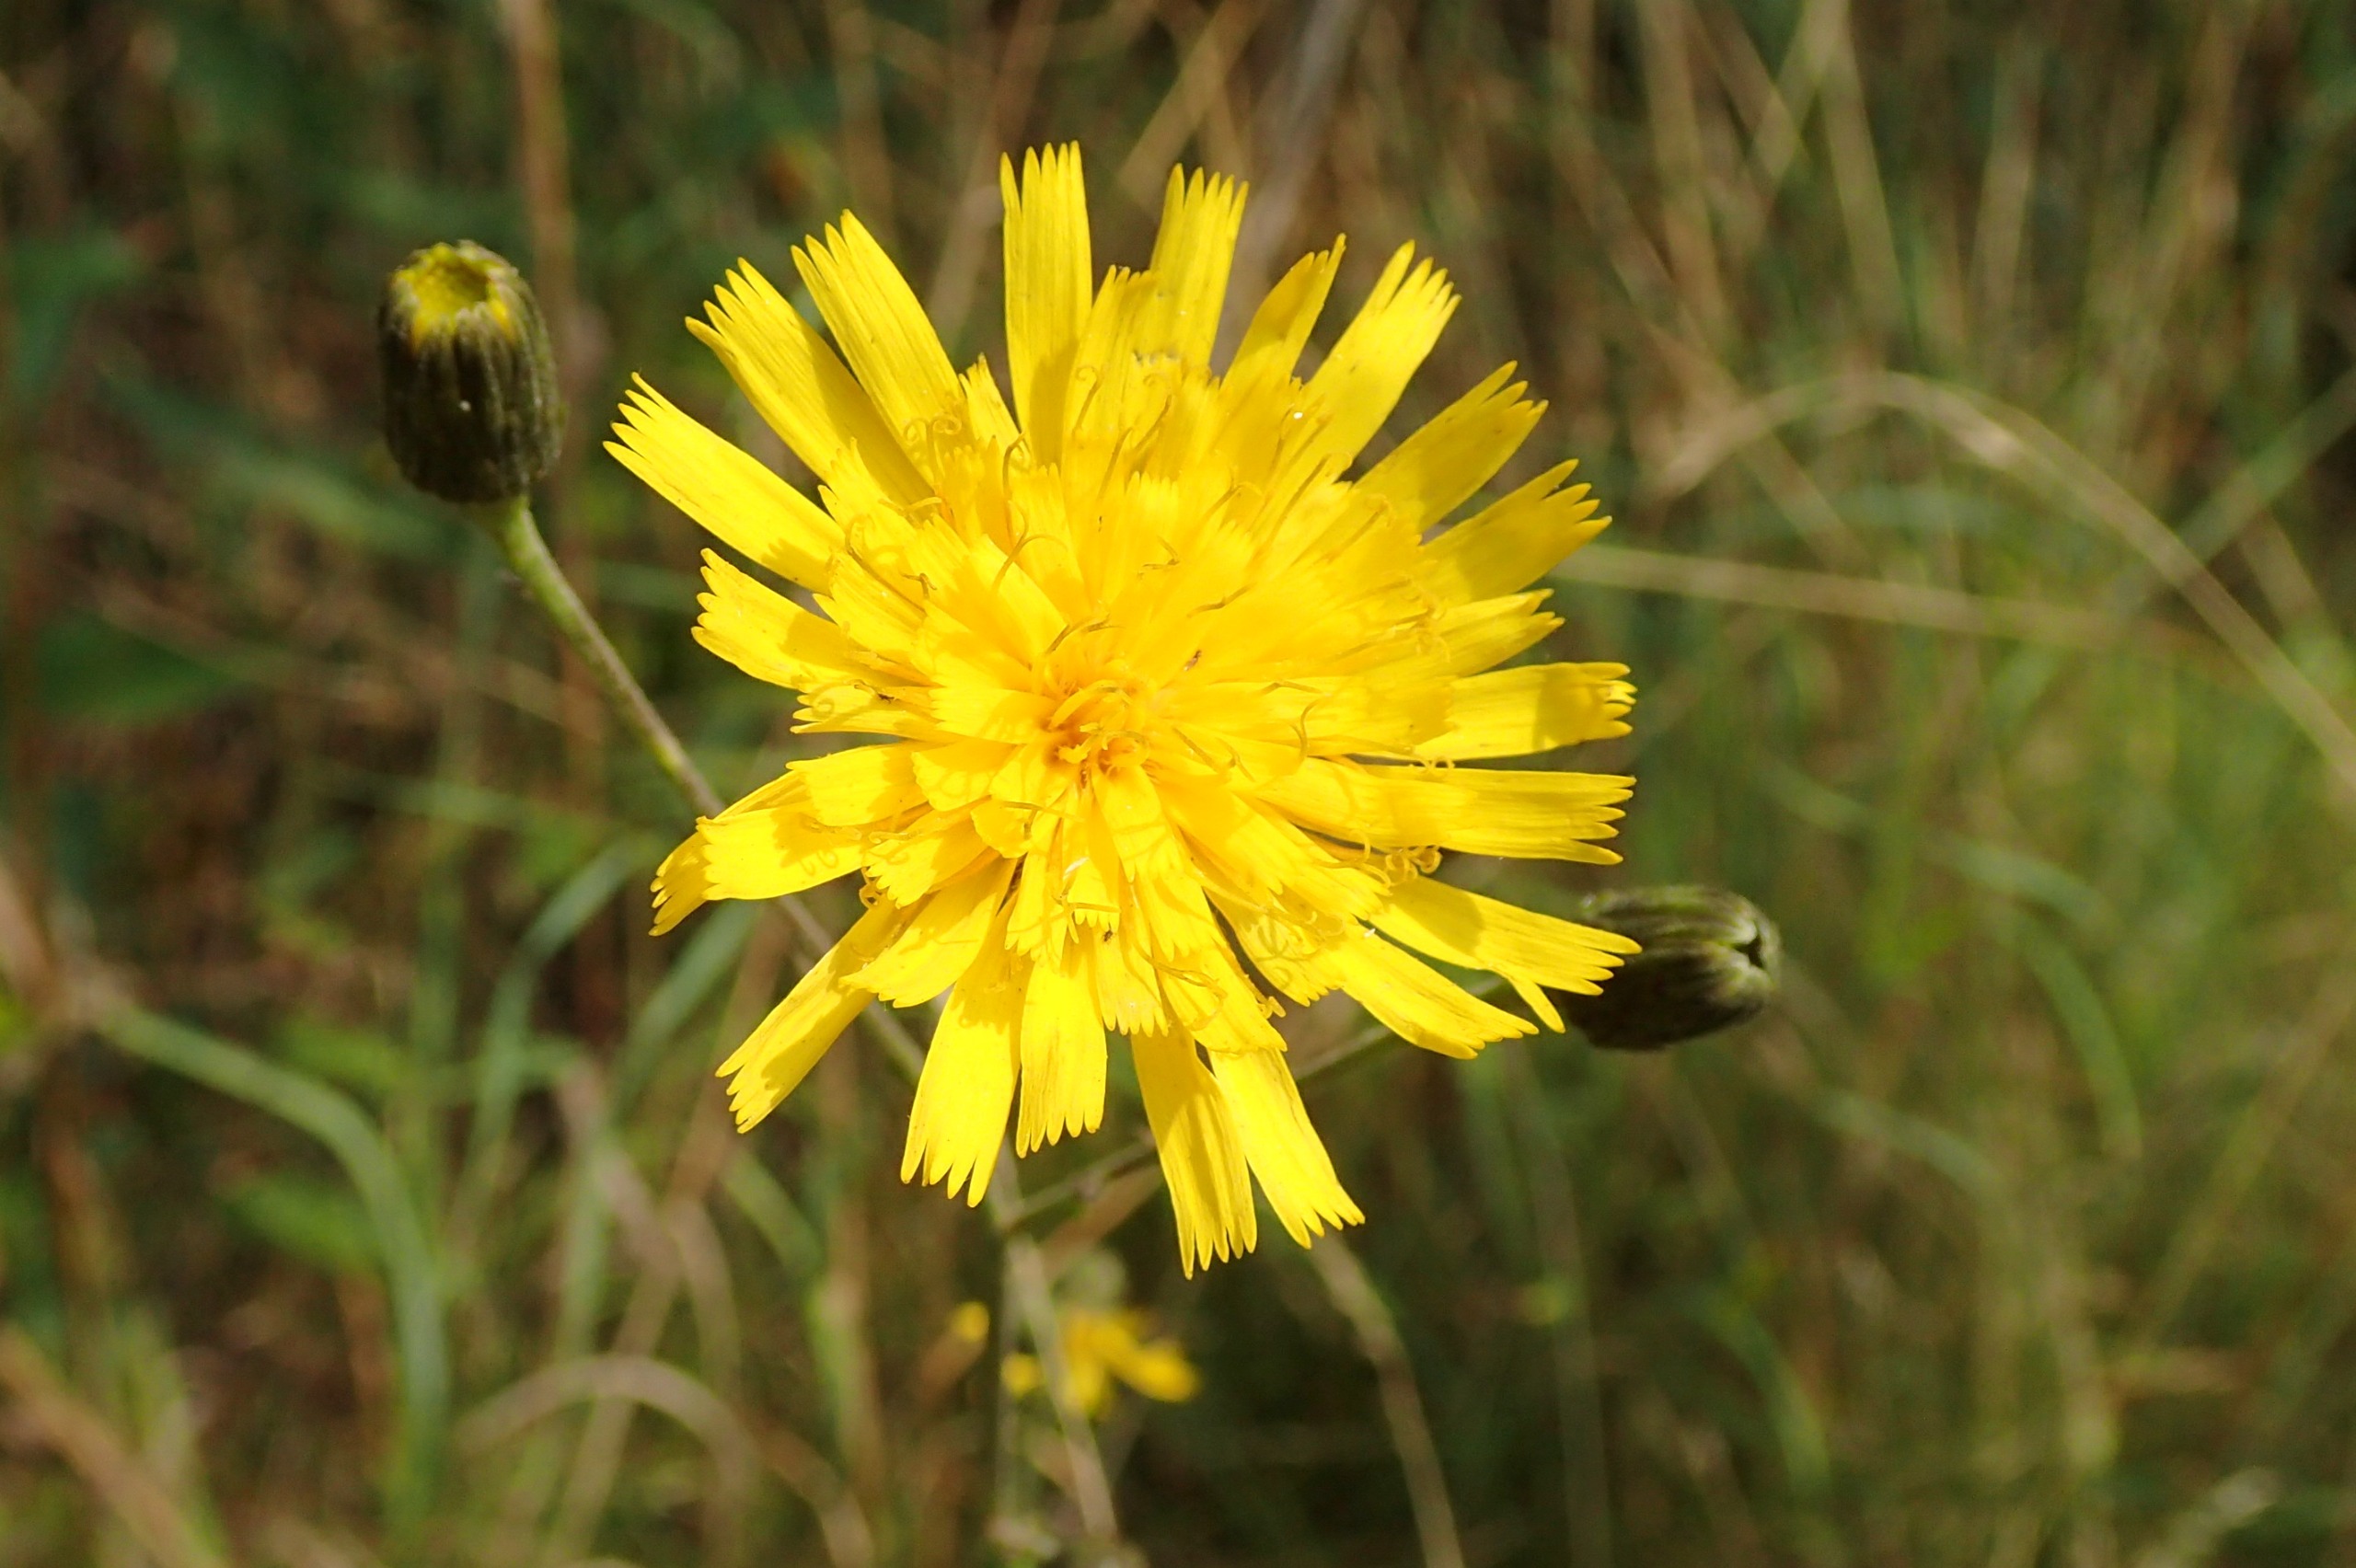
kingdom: Plantae
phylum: Tracheophyta
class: Magnoliopsida
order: Asterales
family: Asteraceae
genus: Hieracium
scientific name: Hieracium sabaudum
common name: Bredbladet høgeurt
